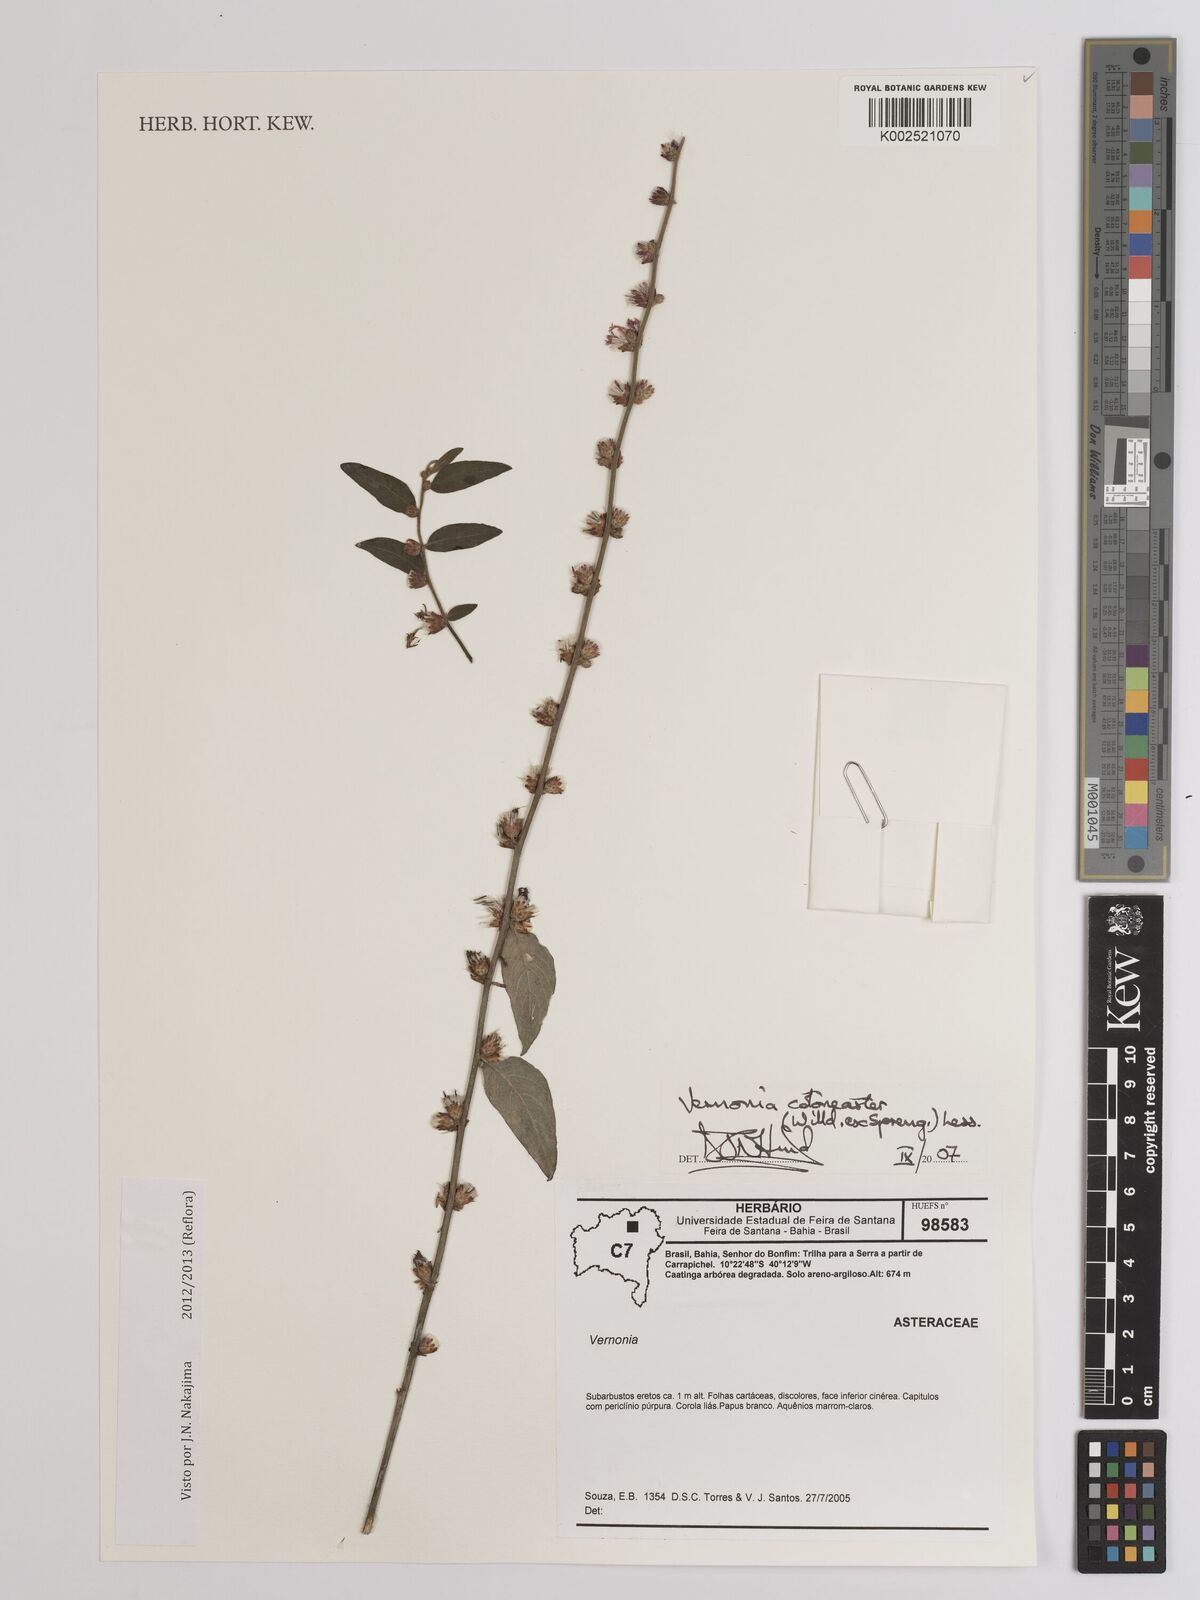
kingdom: Plantae
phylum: Tracheophyta
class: Magnoliopsida
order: Asterales
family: Asteraceae
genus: Lepidaploa
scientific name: Lepidaploa cotoneaster
